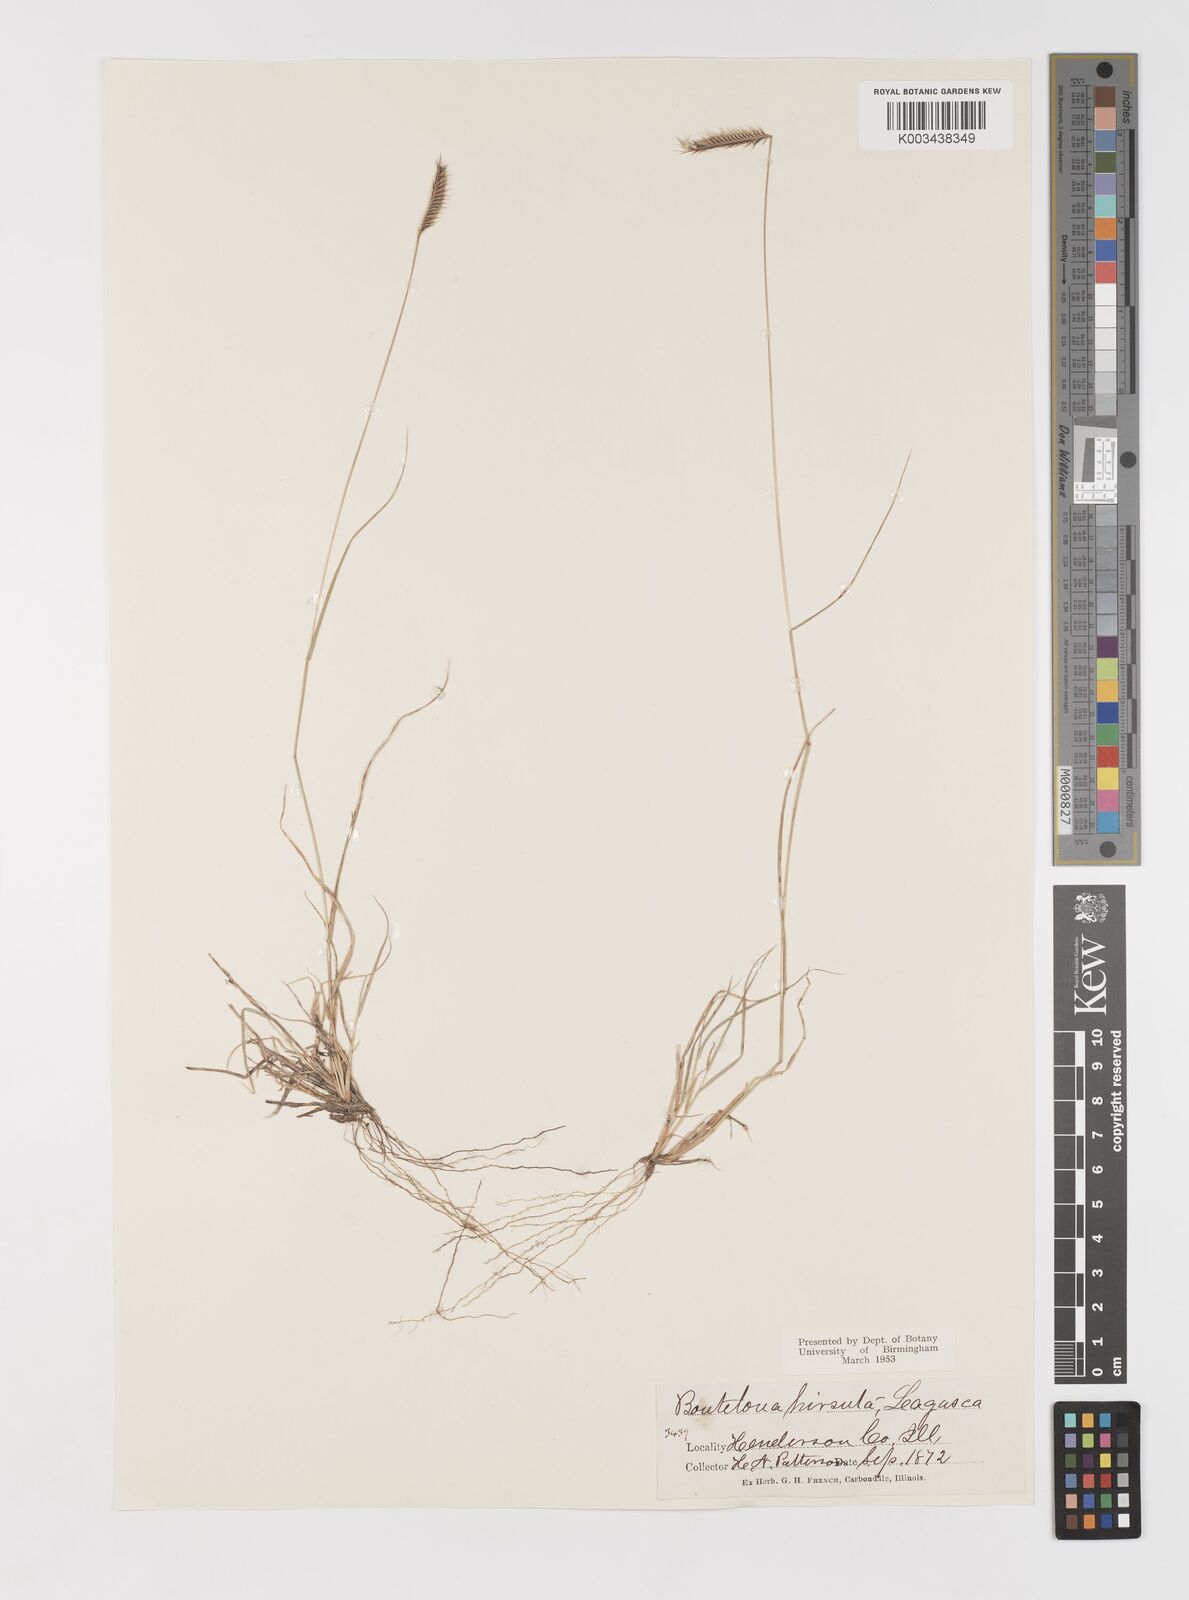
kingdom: Plantae
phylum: Tracheophyta
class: Liliopsida
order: Poales
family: Poaceae
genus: Bouteloua
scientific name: Bouteloua hirsuta
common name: Hairy grama
